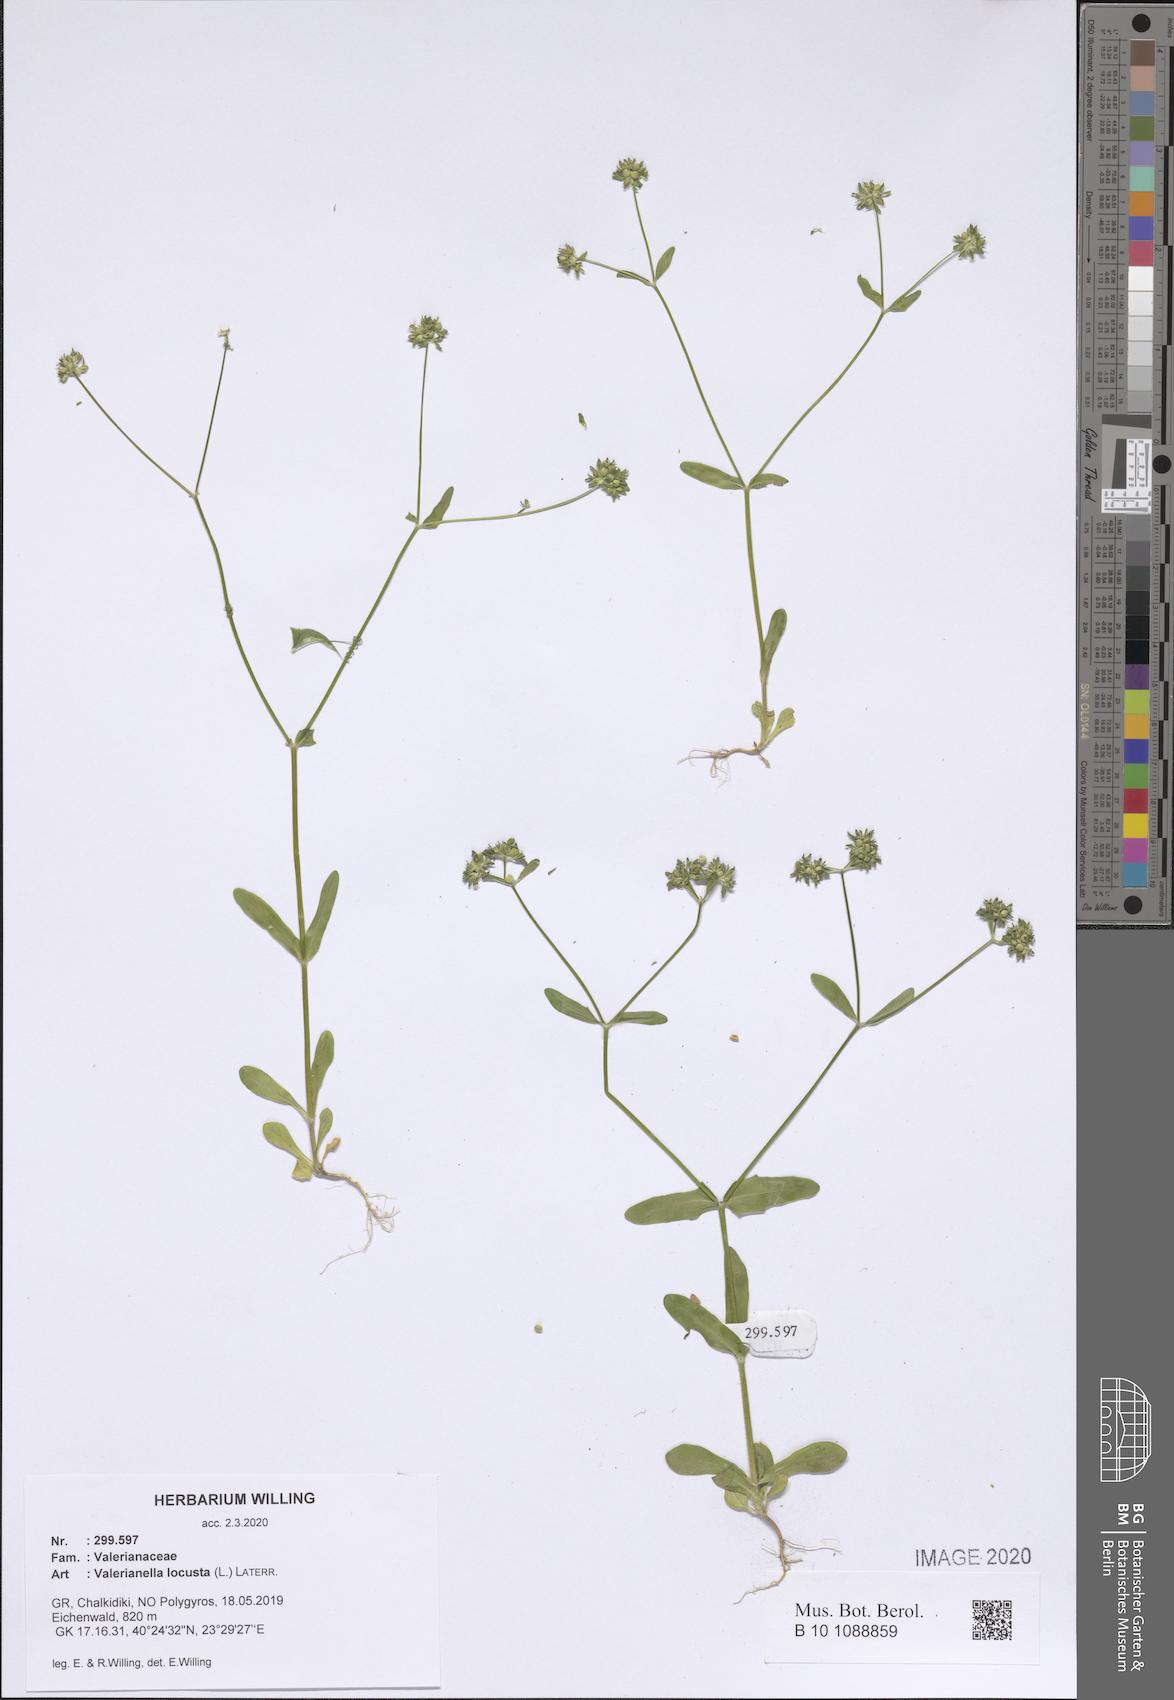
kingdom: Plantae
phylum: Tracheophyta
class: Magnoliopsida
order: Dipsacales
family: Caprifoliaceae
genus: Valerianella
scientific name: Valerianella locusta
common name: Common cornsalad
